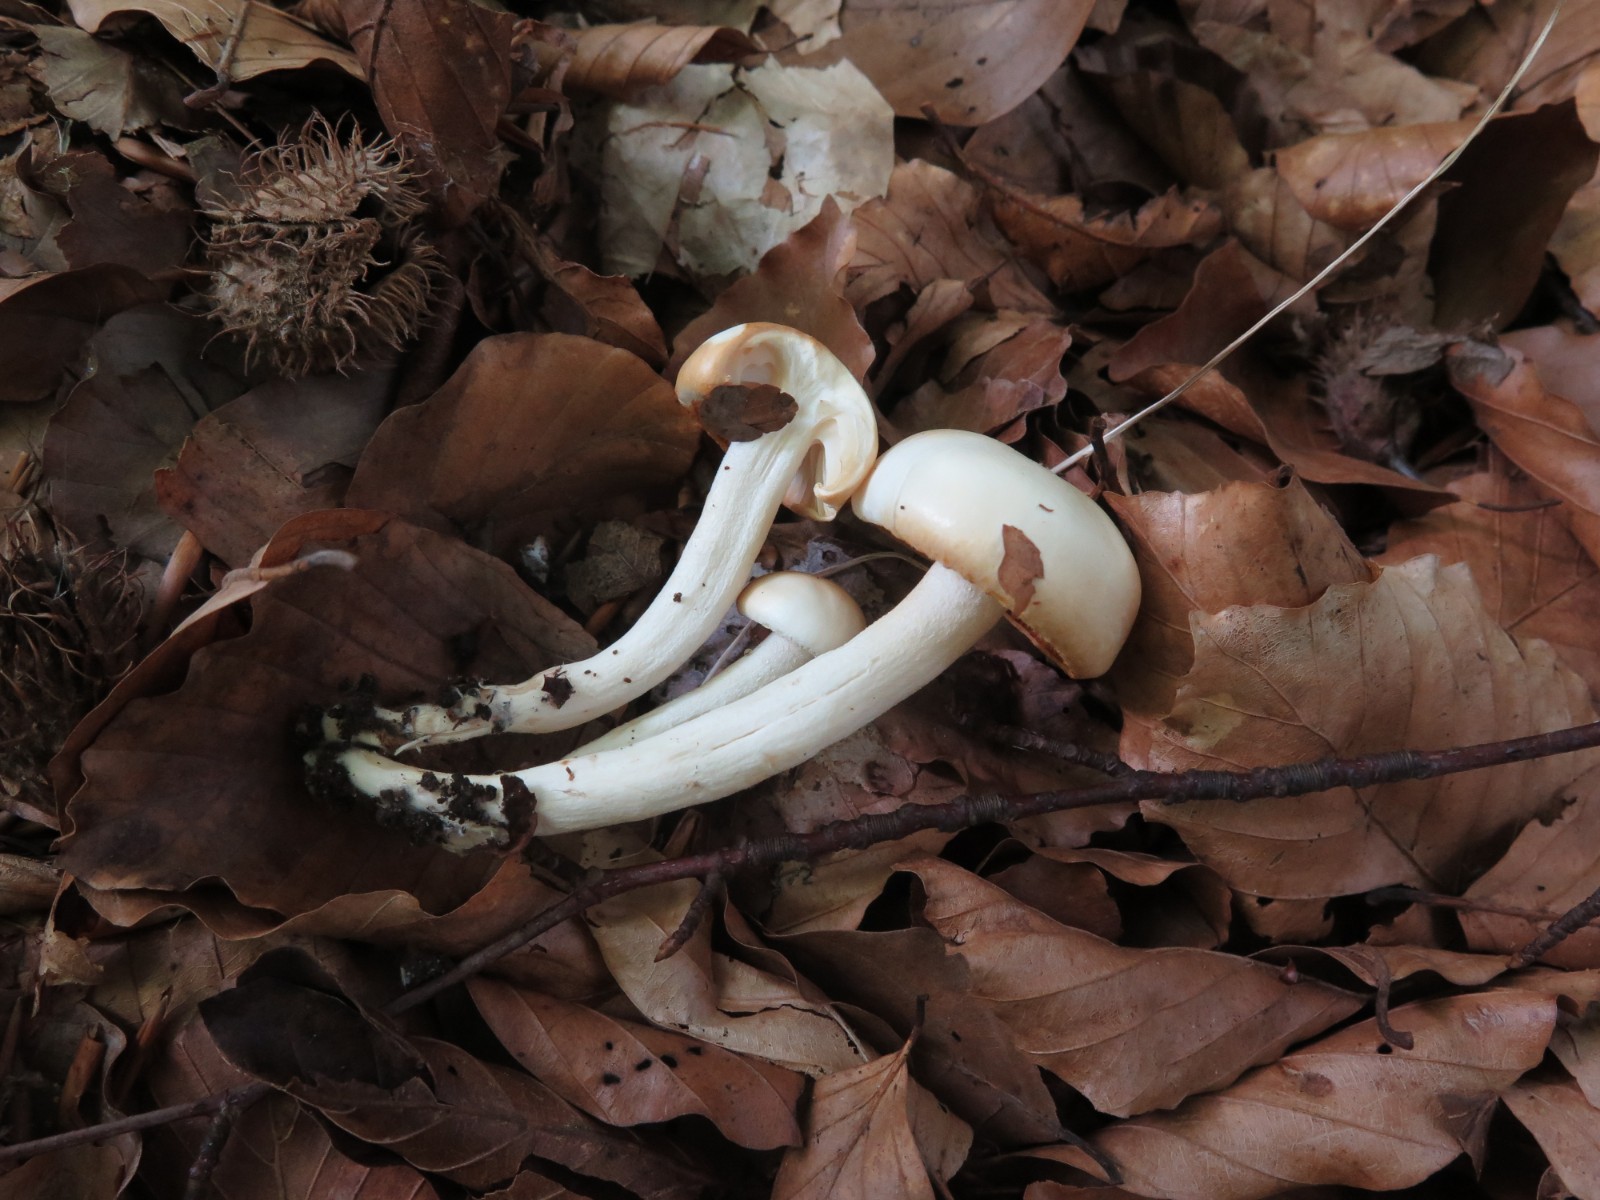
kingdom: Fungi
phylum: Basidiomycota
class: Agaricomycetes
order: Agaricales
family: Hygrophoraceae
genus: Hygrophorus
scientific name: Hygrophorus eburneus
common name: elfenbens-sneglehat
